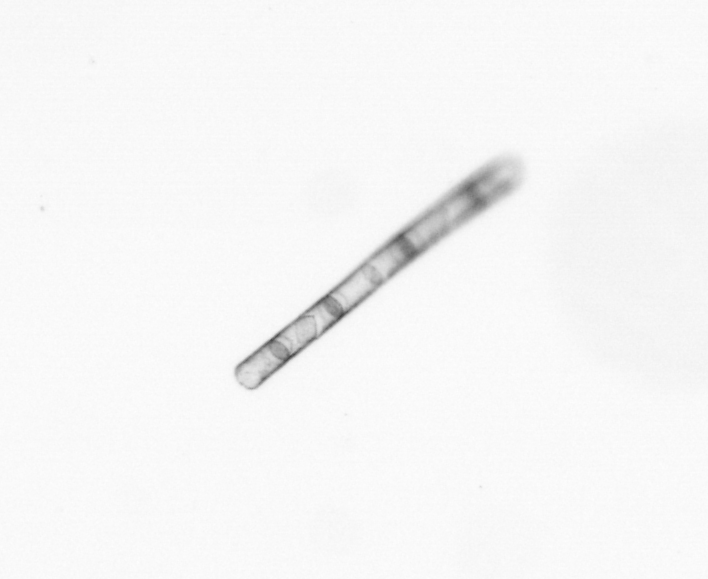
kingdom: Chromista
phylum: Ochrophyta
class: Bacillariophyceae
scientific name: Bacillariophyceae
